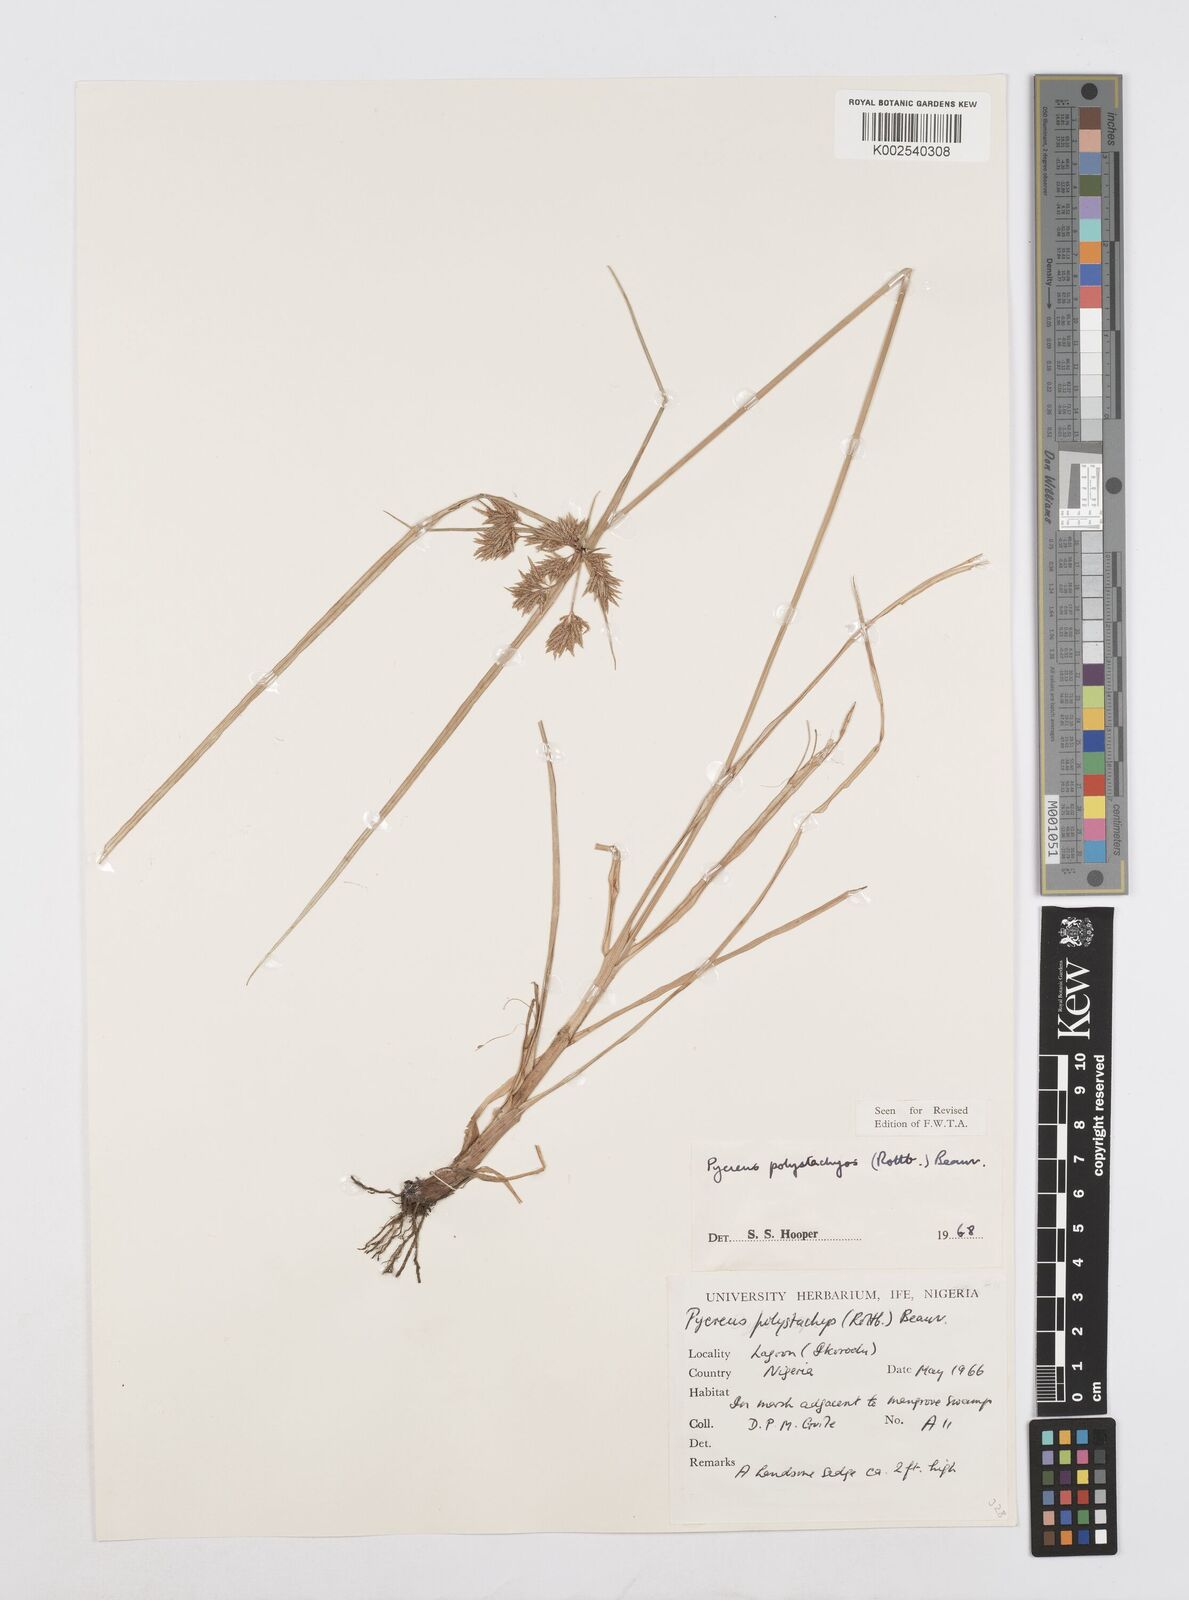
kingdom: Plantae
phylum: Tracheophyta
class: Liliopsida
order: Poales
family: Cyperaceae
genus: Cyperus
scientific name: Cyperus polystachyos
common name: Bunchy flat sedge
